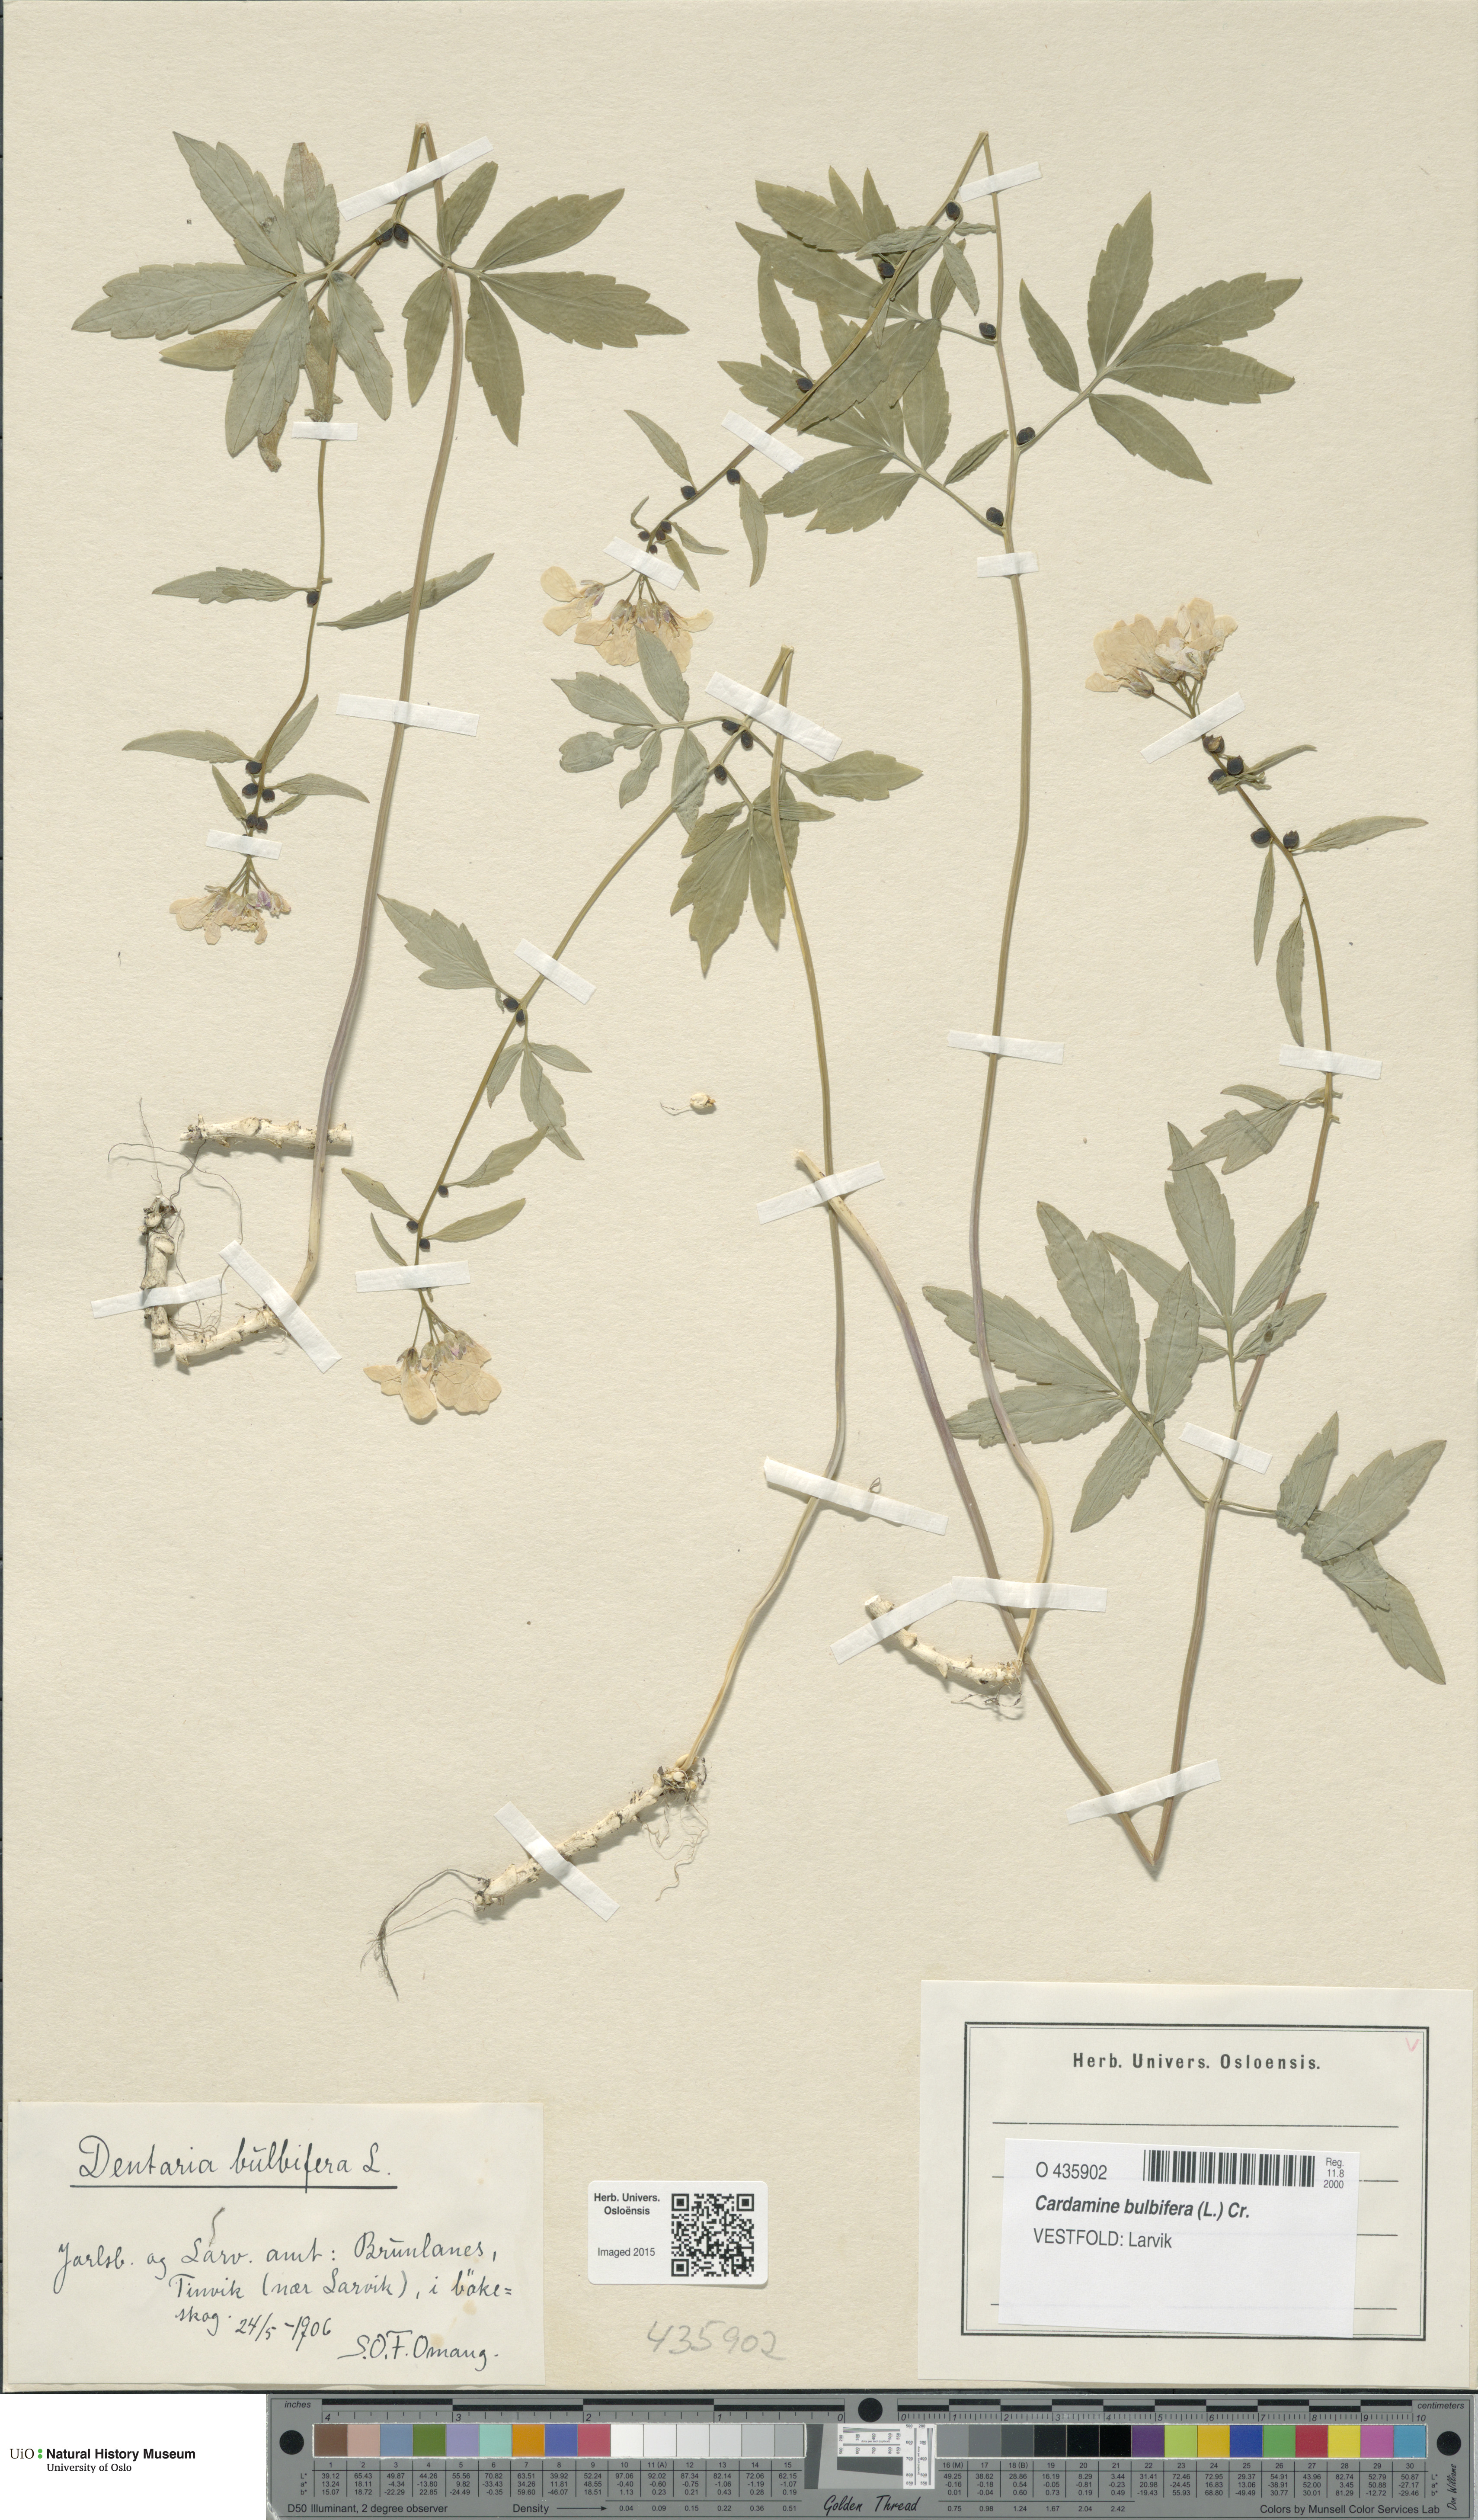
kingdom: Plantae
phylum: Tracheophyta
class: Magnoliopsida
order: Brassicales
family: Brassicaceae
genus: Cardamine
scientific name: Cardamine bulbifera
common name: Coralroot bittercress
